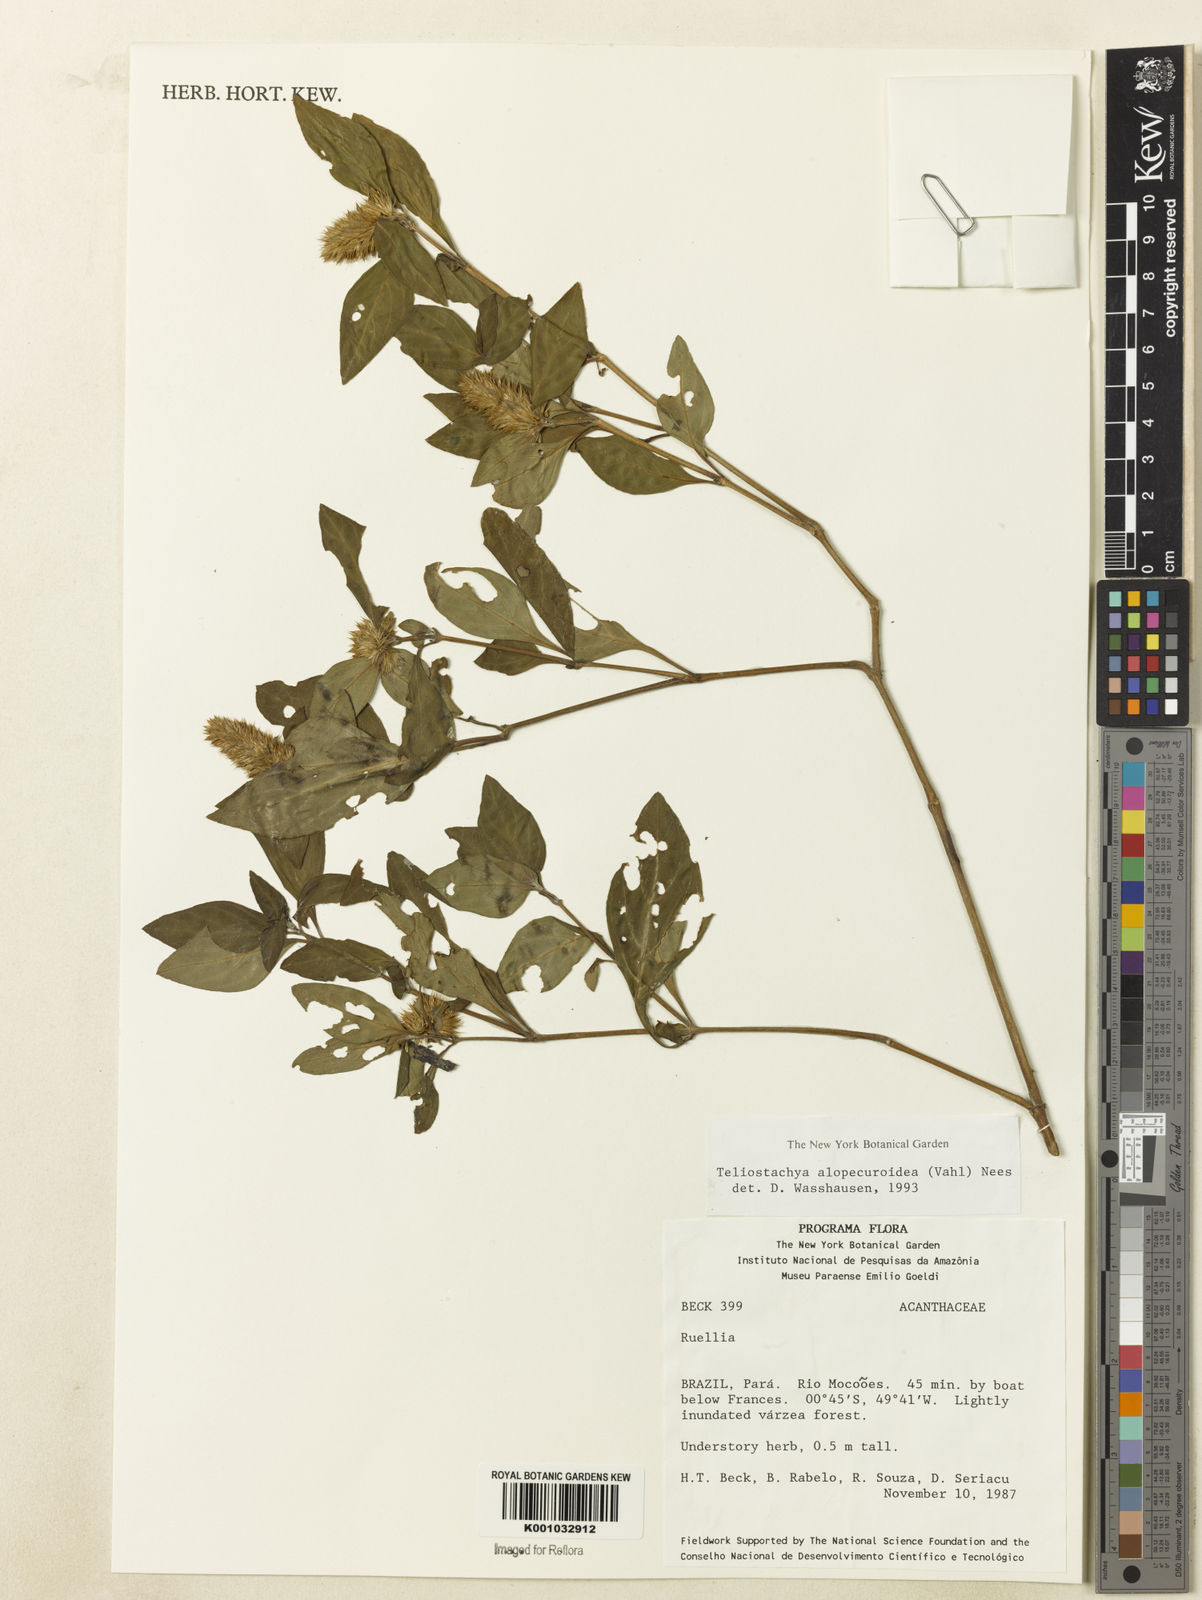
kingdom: Plantae
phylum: Tracheophyta
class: Magnoliopsida
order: Lamiales
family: Acanthaceae
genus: Lepidagathis
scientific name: Lepidagathis alopecuroidea
